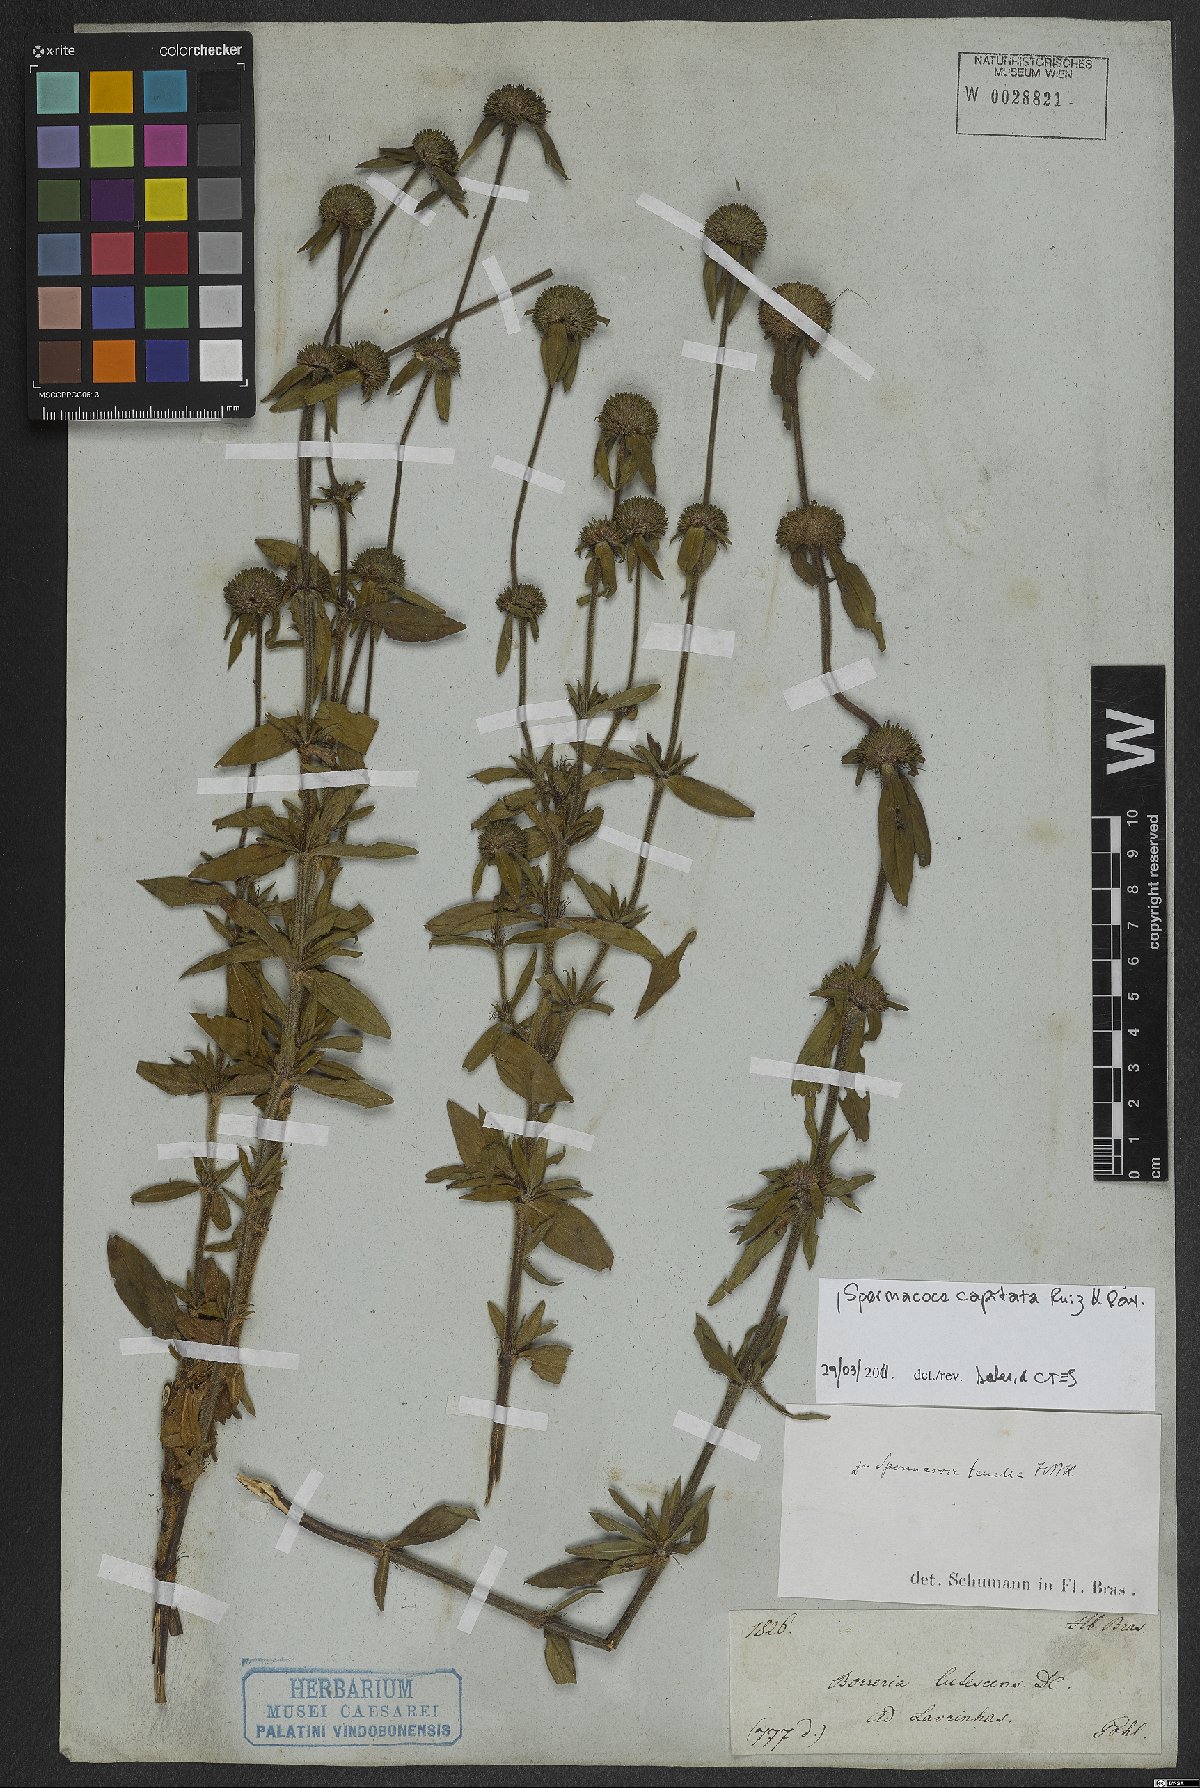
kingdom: Plantae
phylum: Tracheophyta
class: Magnoliopsida
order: Gentianales
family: Rubiaceae
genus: Spermacoce
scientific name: Spermacoce capitata
